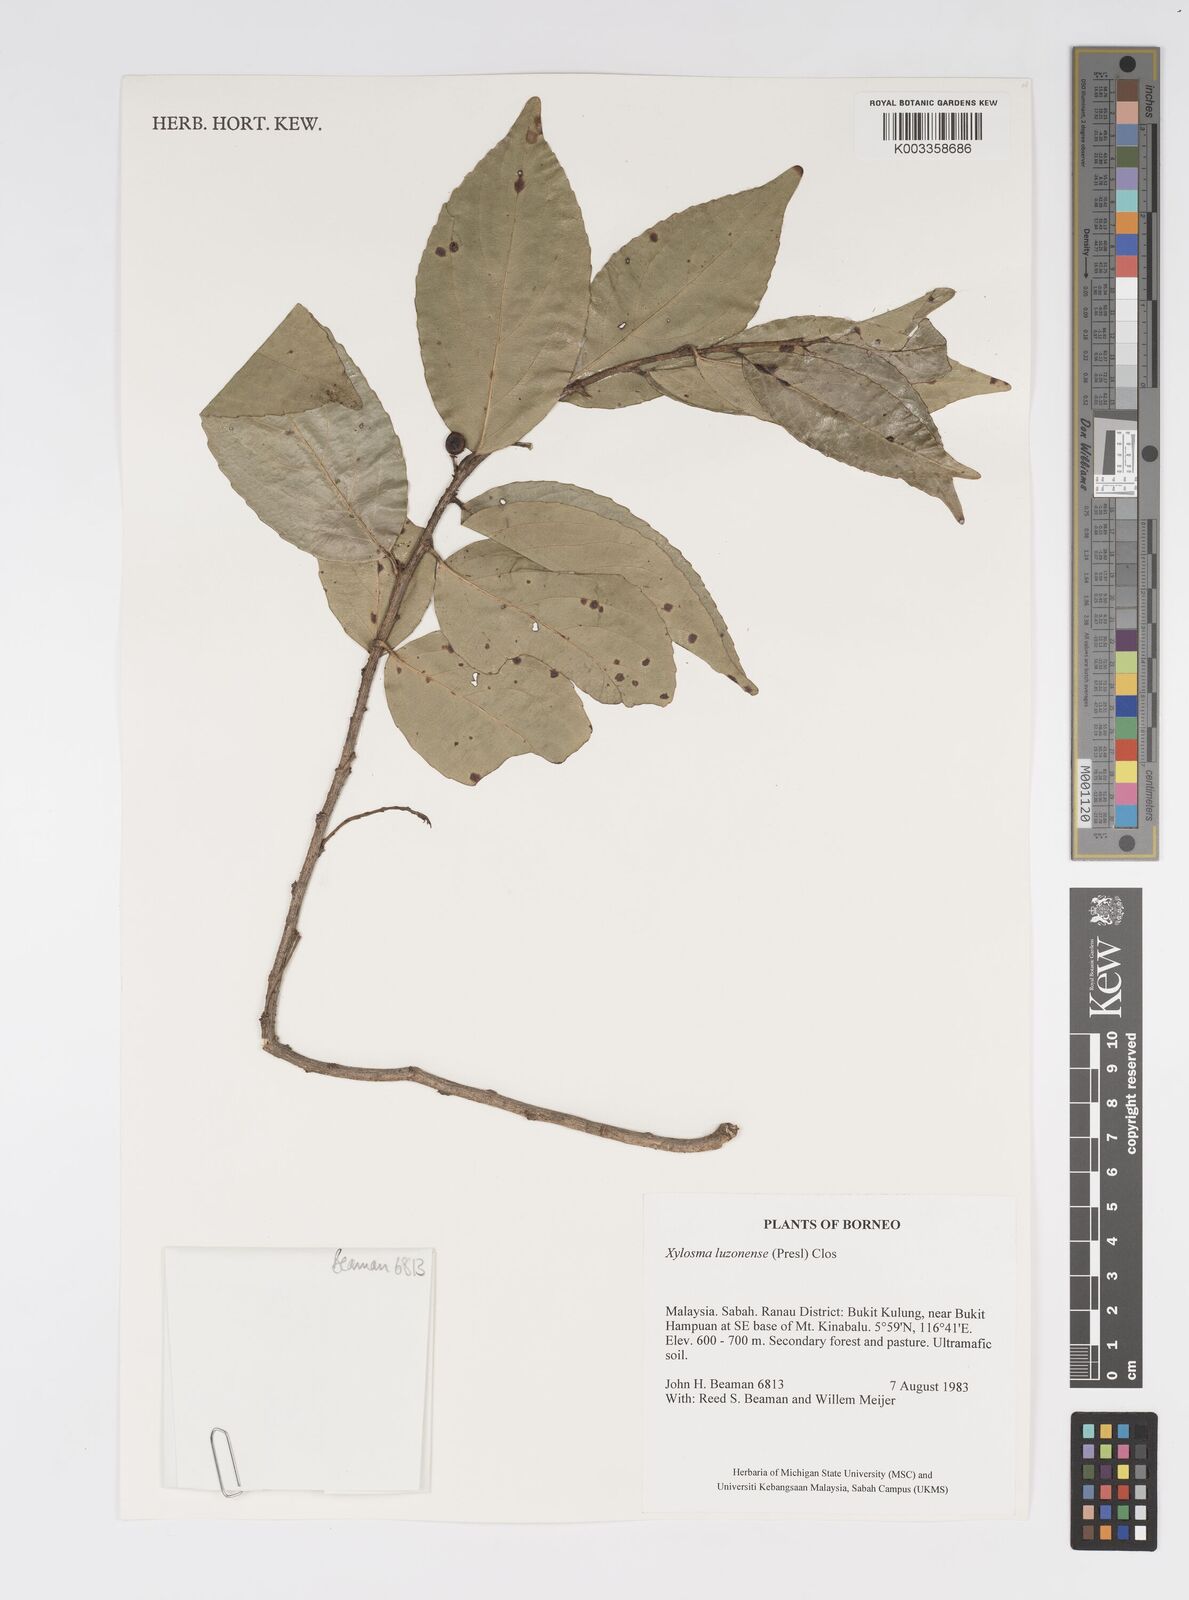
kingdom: Plantae
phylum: Tracheophyta
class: Magnoliopsida
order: Malpighiales
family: Salicaceae
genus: Xylosma
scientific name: Xylosma luzonensis
